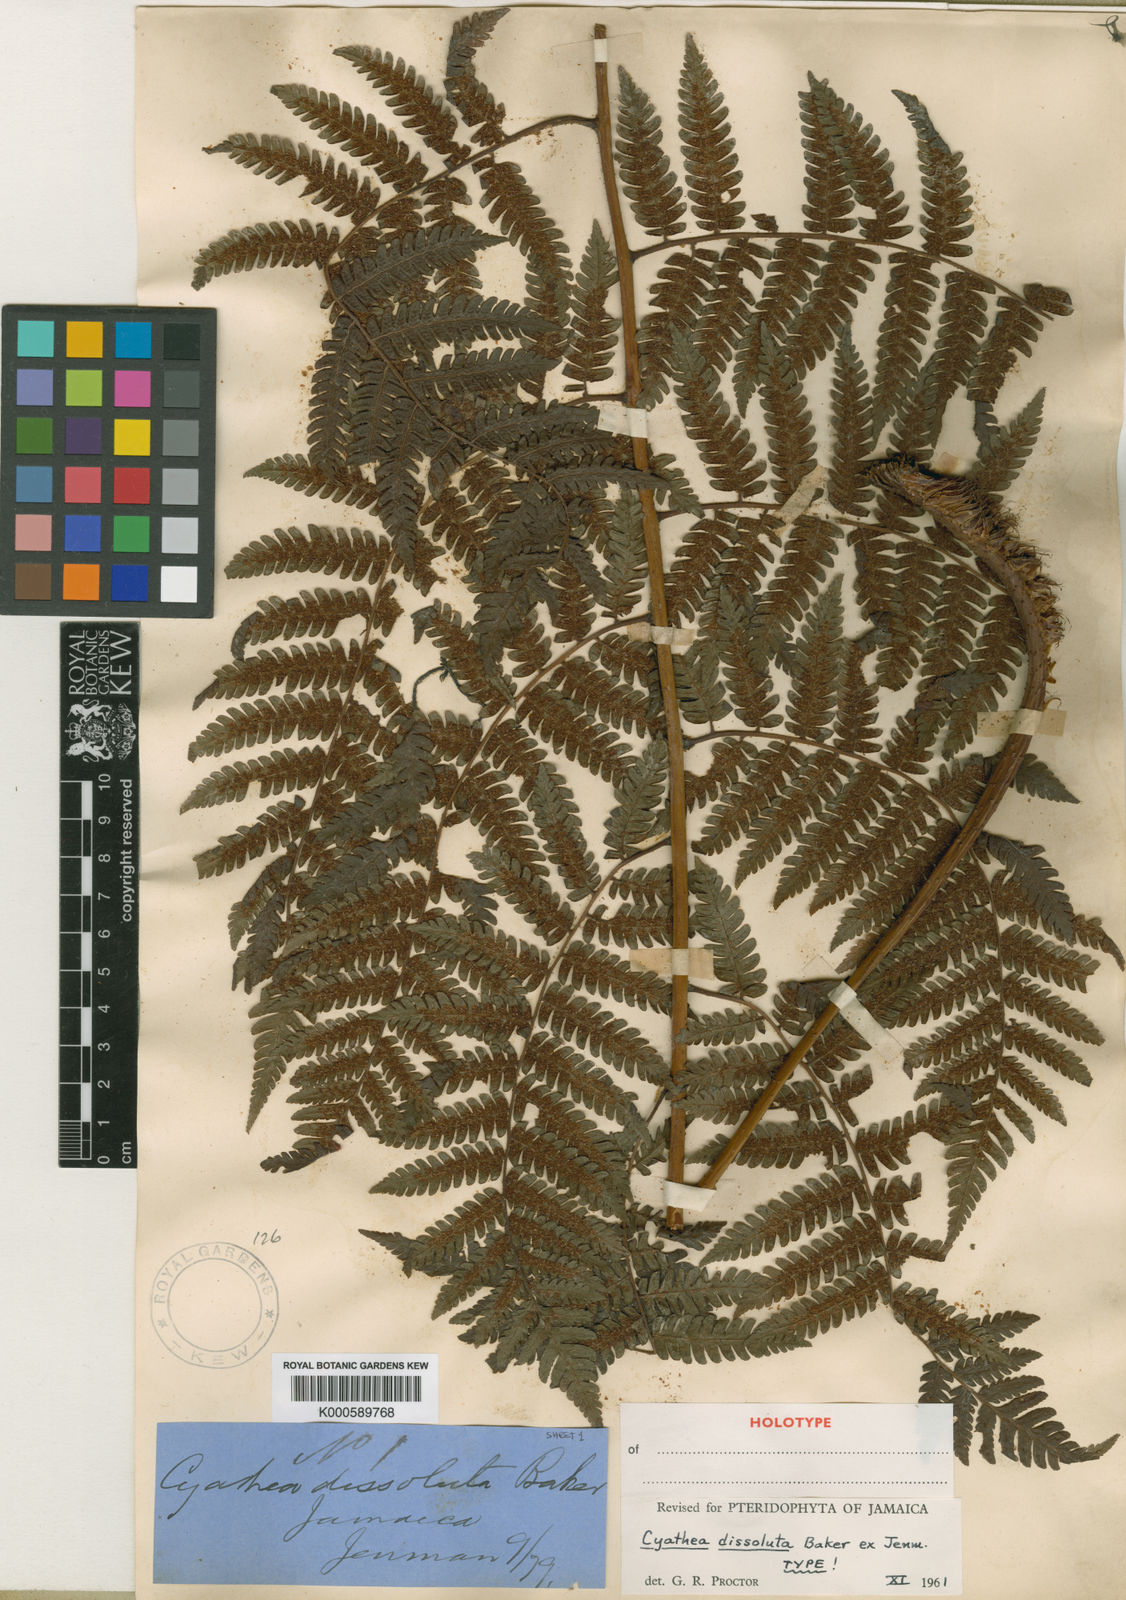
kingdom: Plantae
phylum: Tracheophyta
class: Polypodiopsida
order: Cyatheales
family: Cyatheaceae
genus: Cyathea
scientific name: Cyathea
